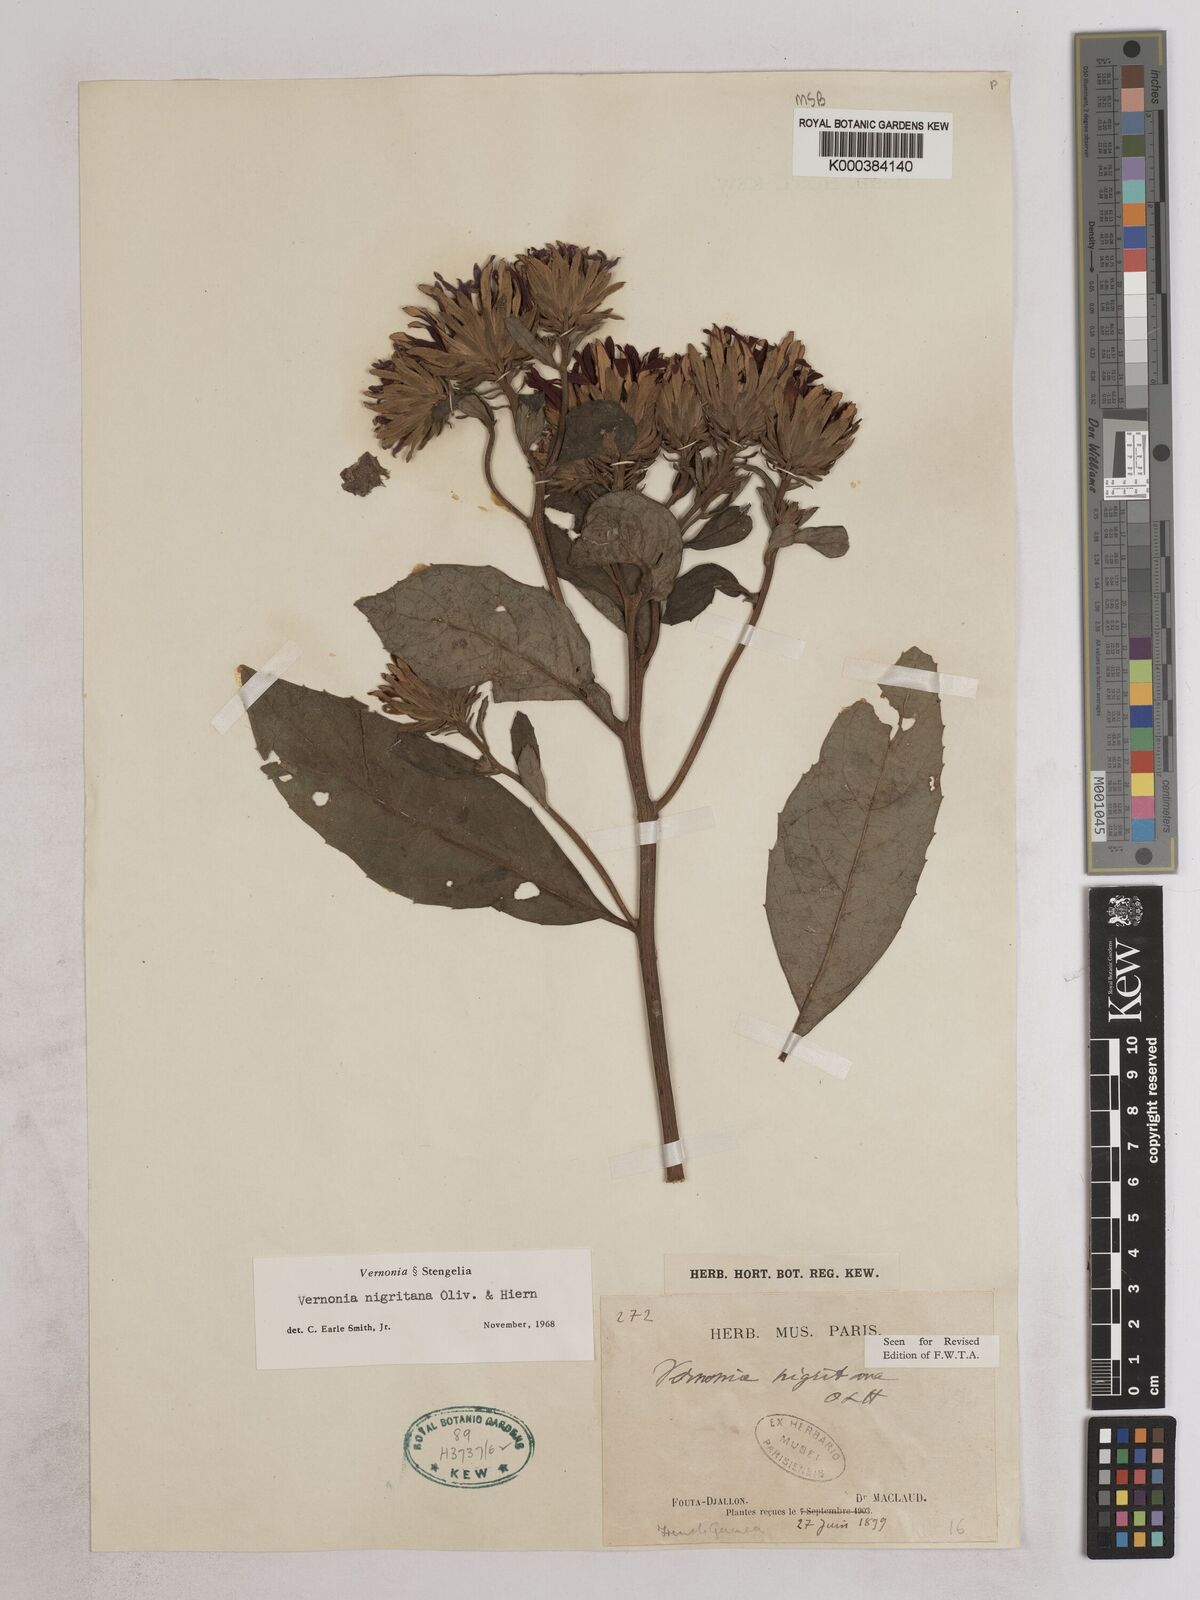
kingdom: Plantae
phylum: Tracheophyta
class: Magnoliopsida
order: Asterales
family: Asteraceae
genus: Linzia
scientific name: Linzia nigritiana
